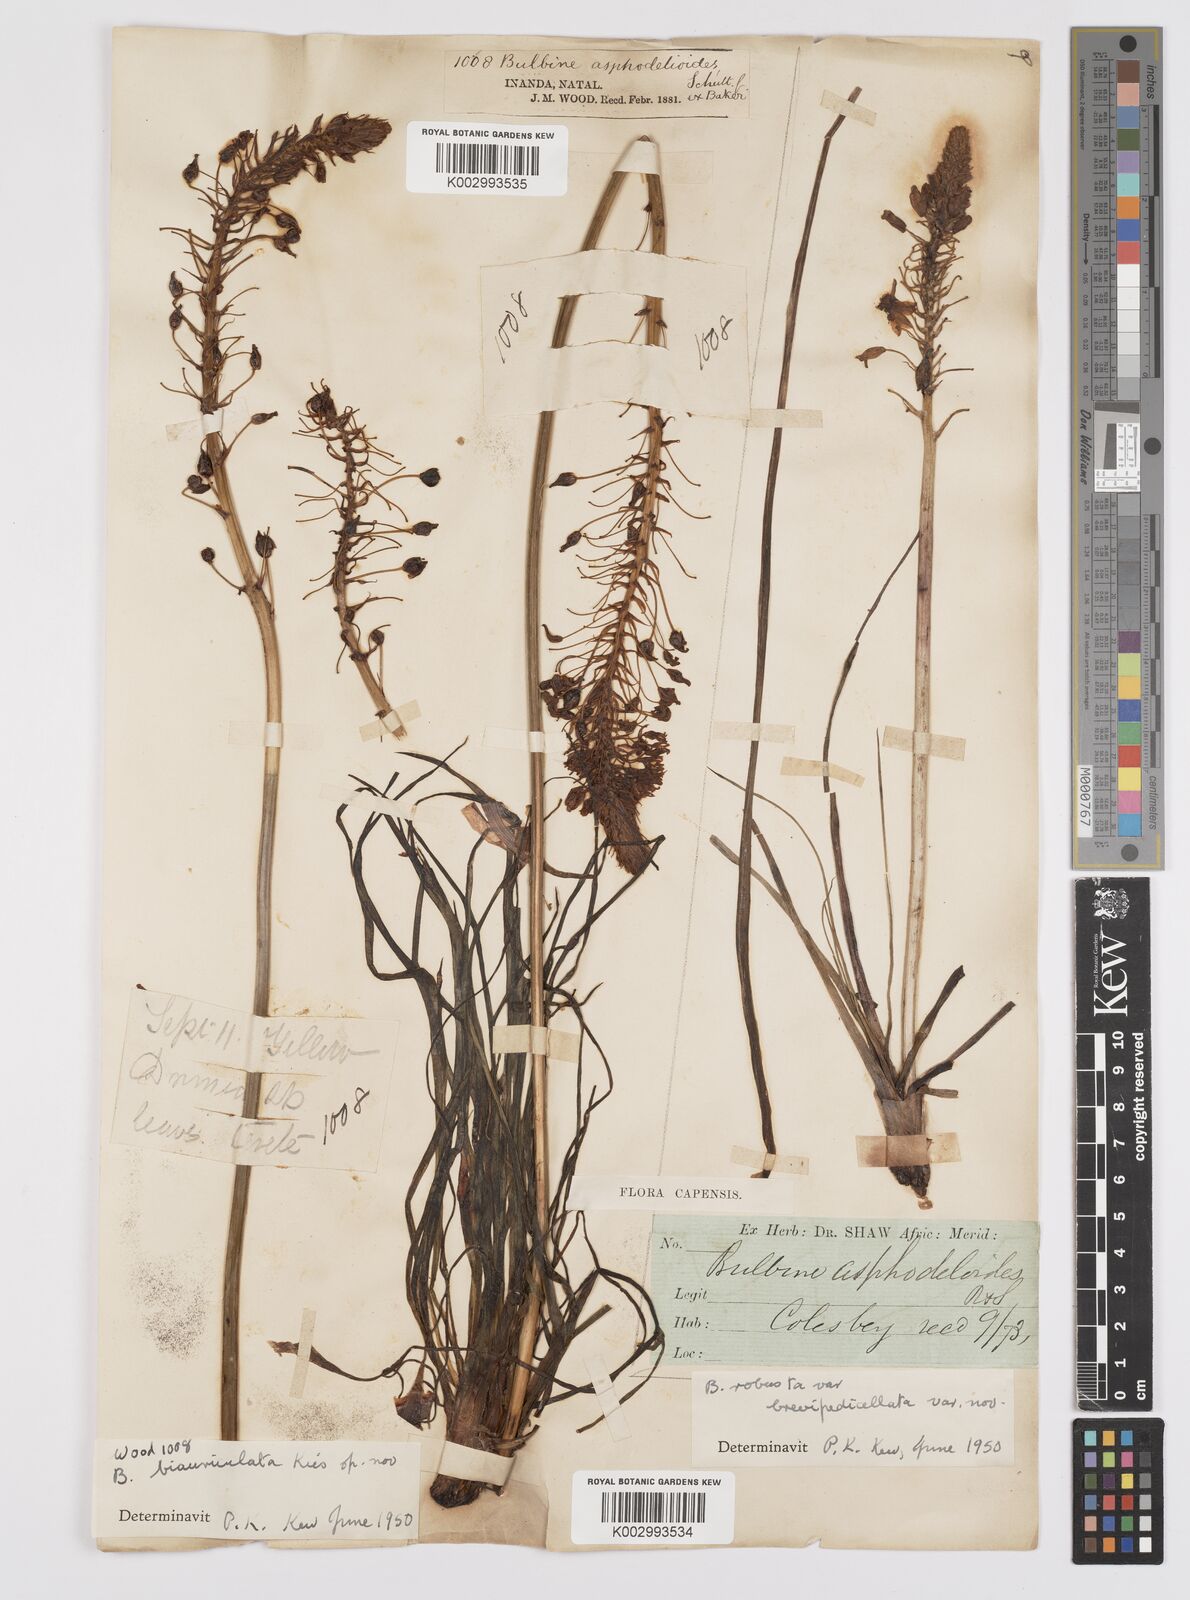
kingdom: Plantae
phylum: Tracheophyta
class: Liliopsida
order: Asparagales
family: Asphodelaceae
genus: Bulbine
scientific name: Bulbine asphodeloides
